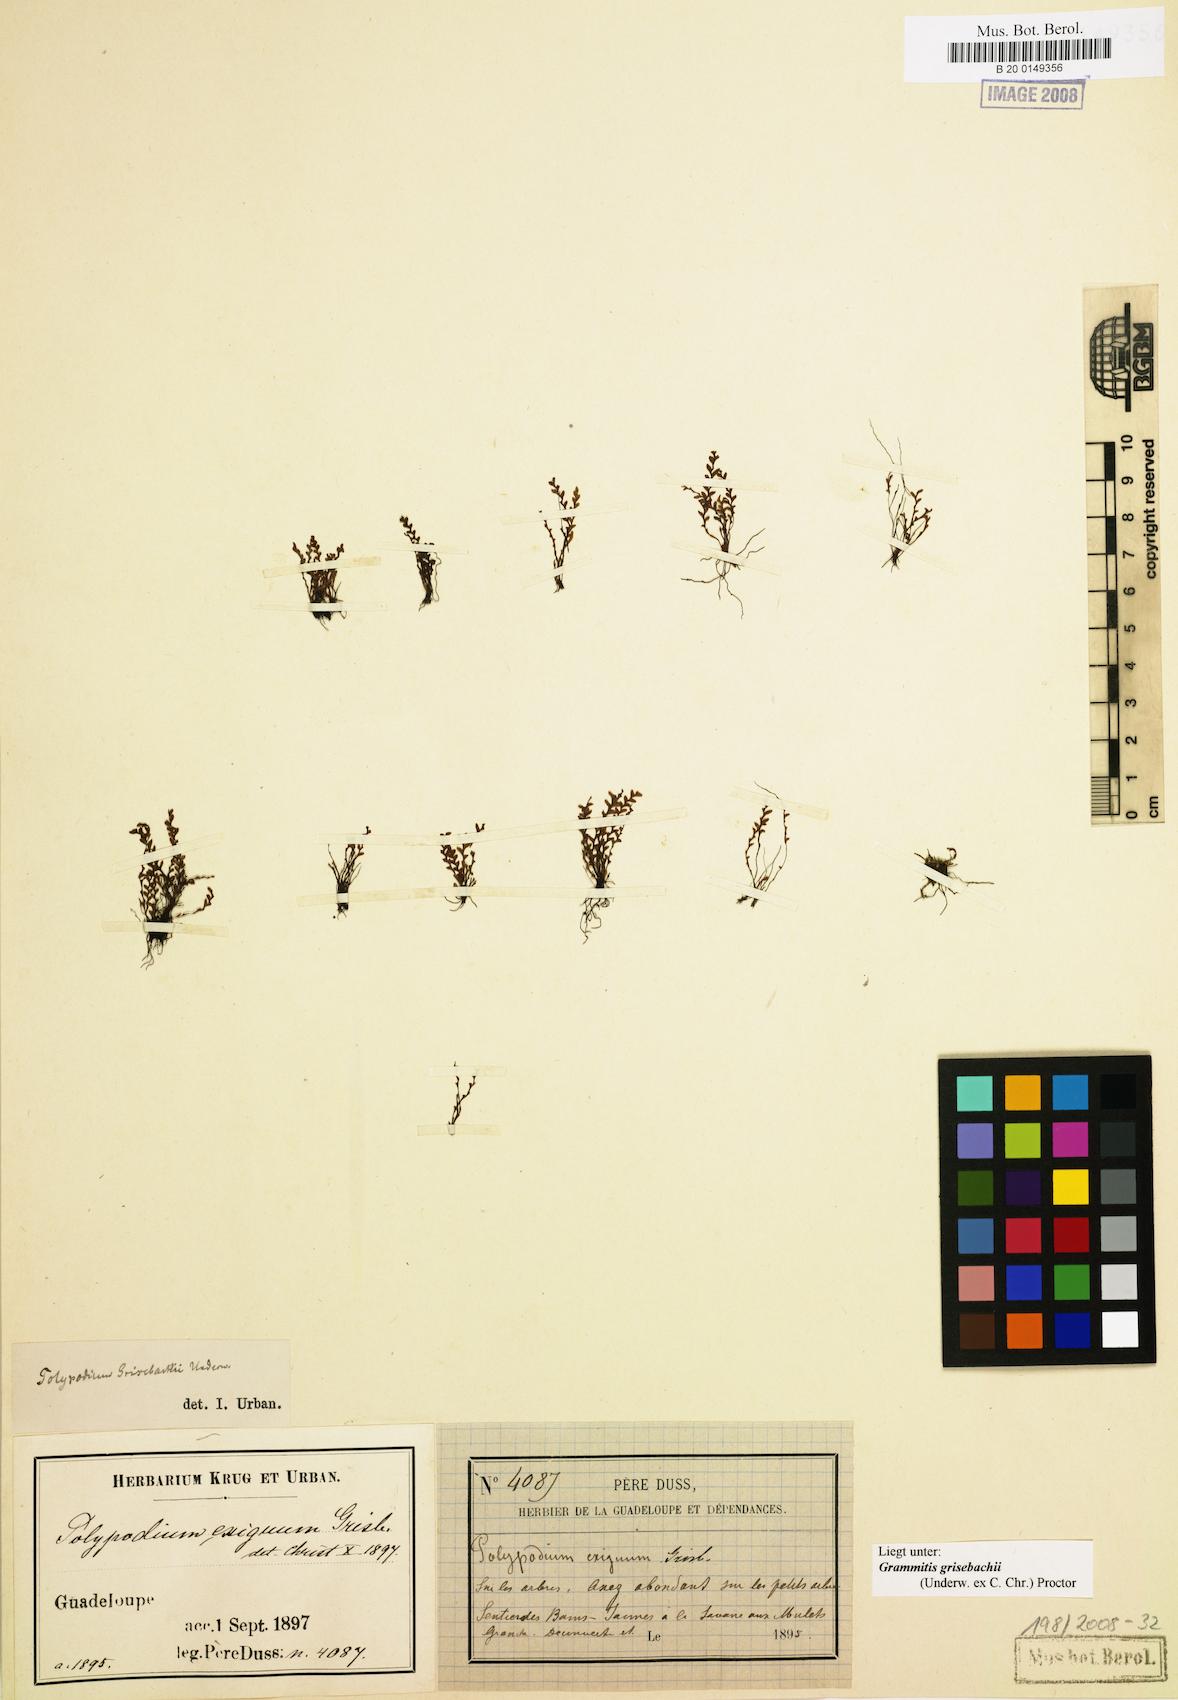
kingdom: Plantae
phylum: Tracheophyta
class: Polypodiopsida
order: Polypodiales
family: Polypodiaceae
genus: Moranopteris
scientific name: Moranopteris grisebachii
